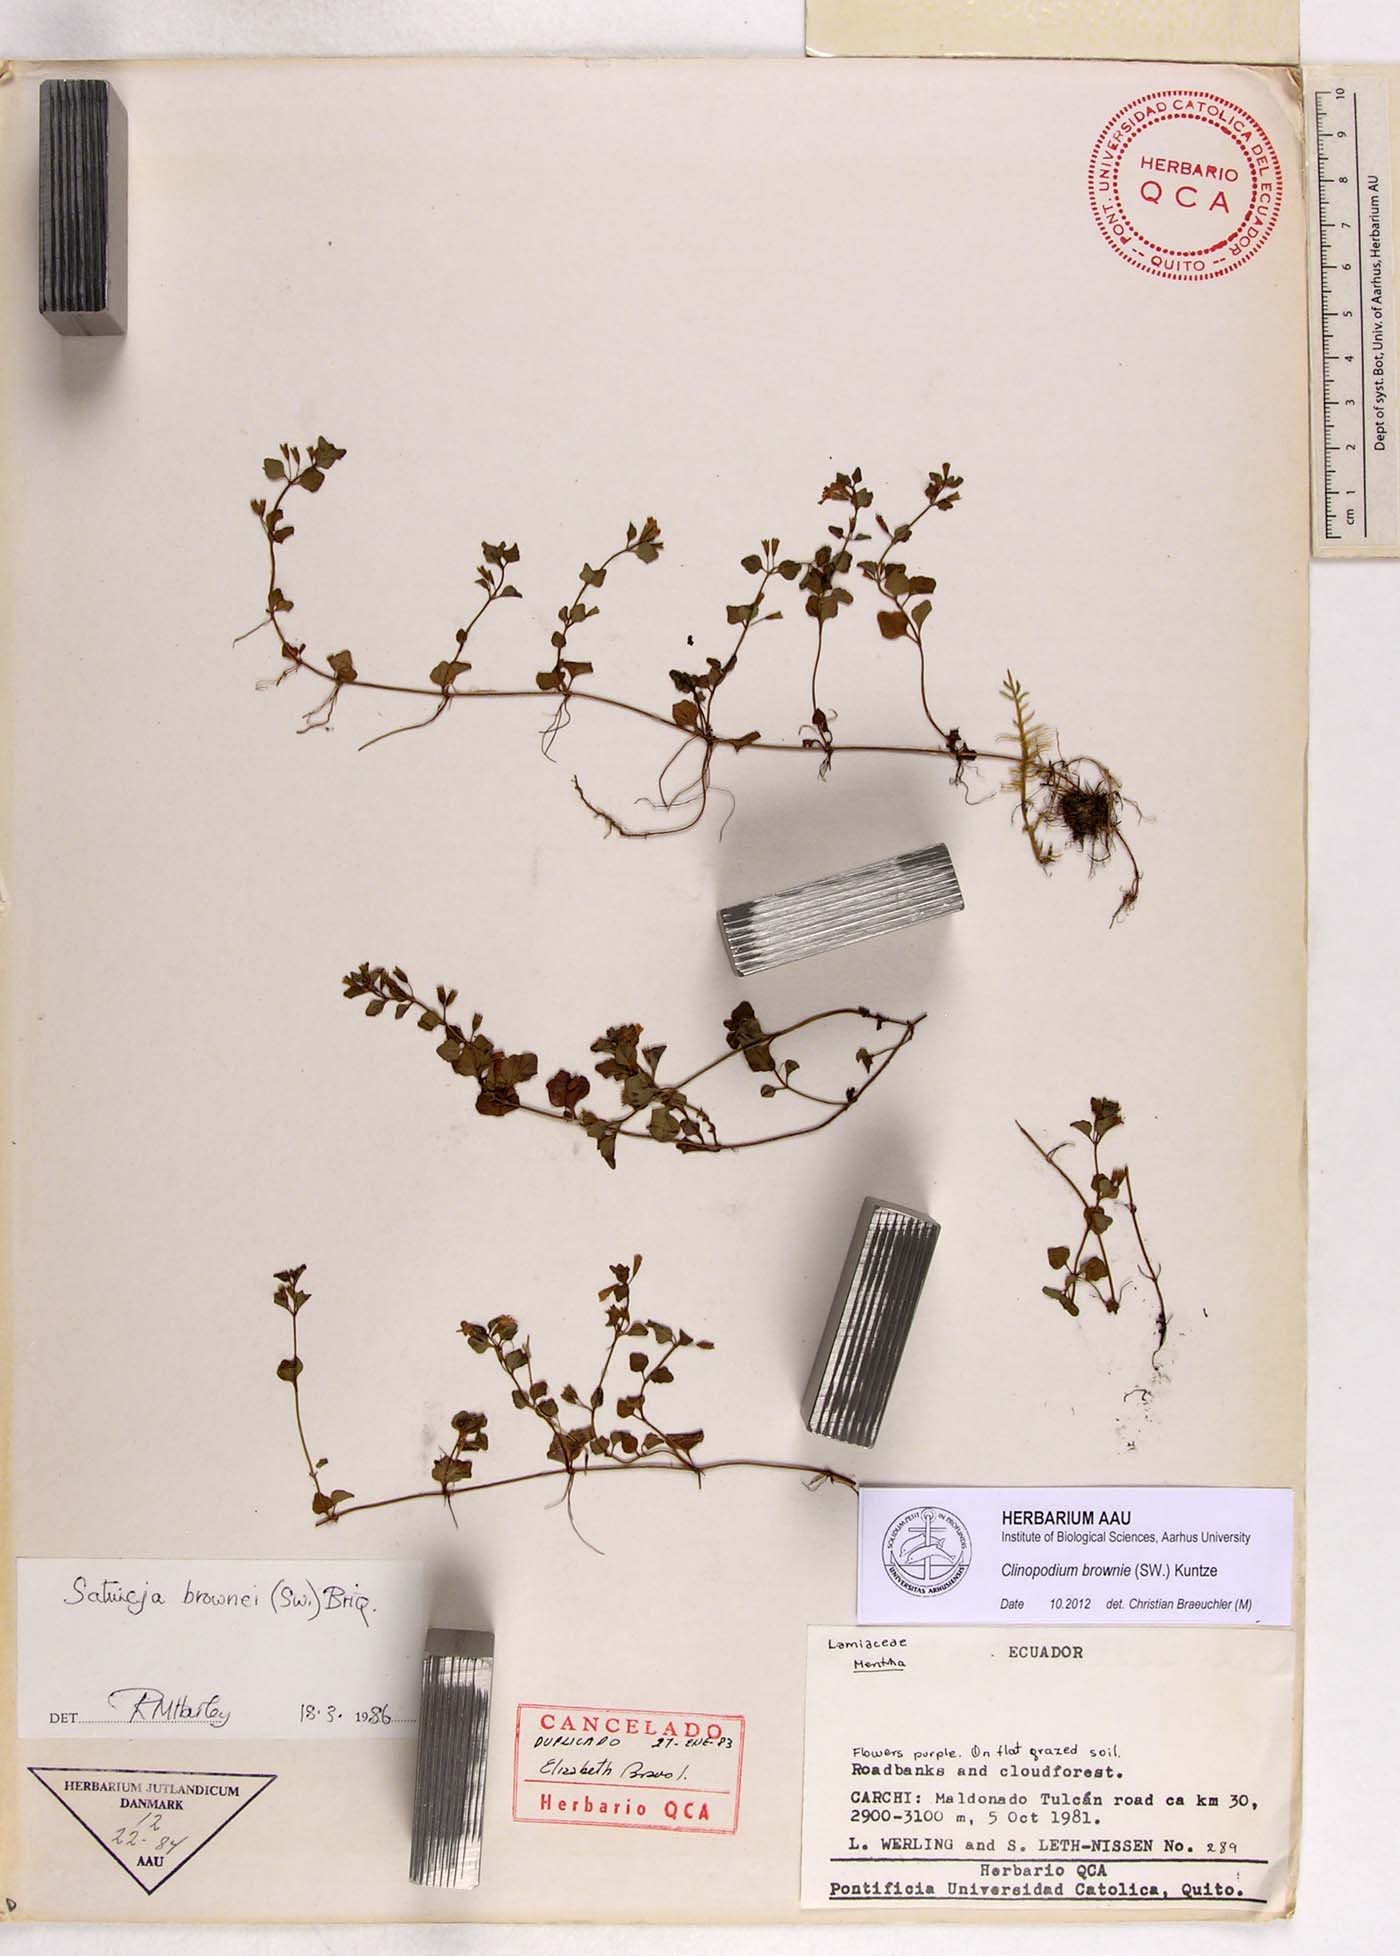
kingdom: Plantae
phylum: Tracheophyta
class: Magnoliopsida
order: Lamiales
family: Lamiaceae
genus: Clinopodium
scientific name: Clinopodium brownei
